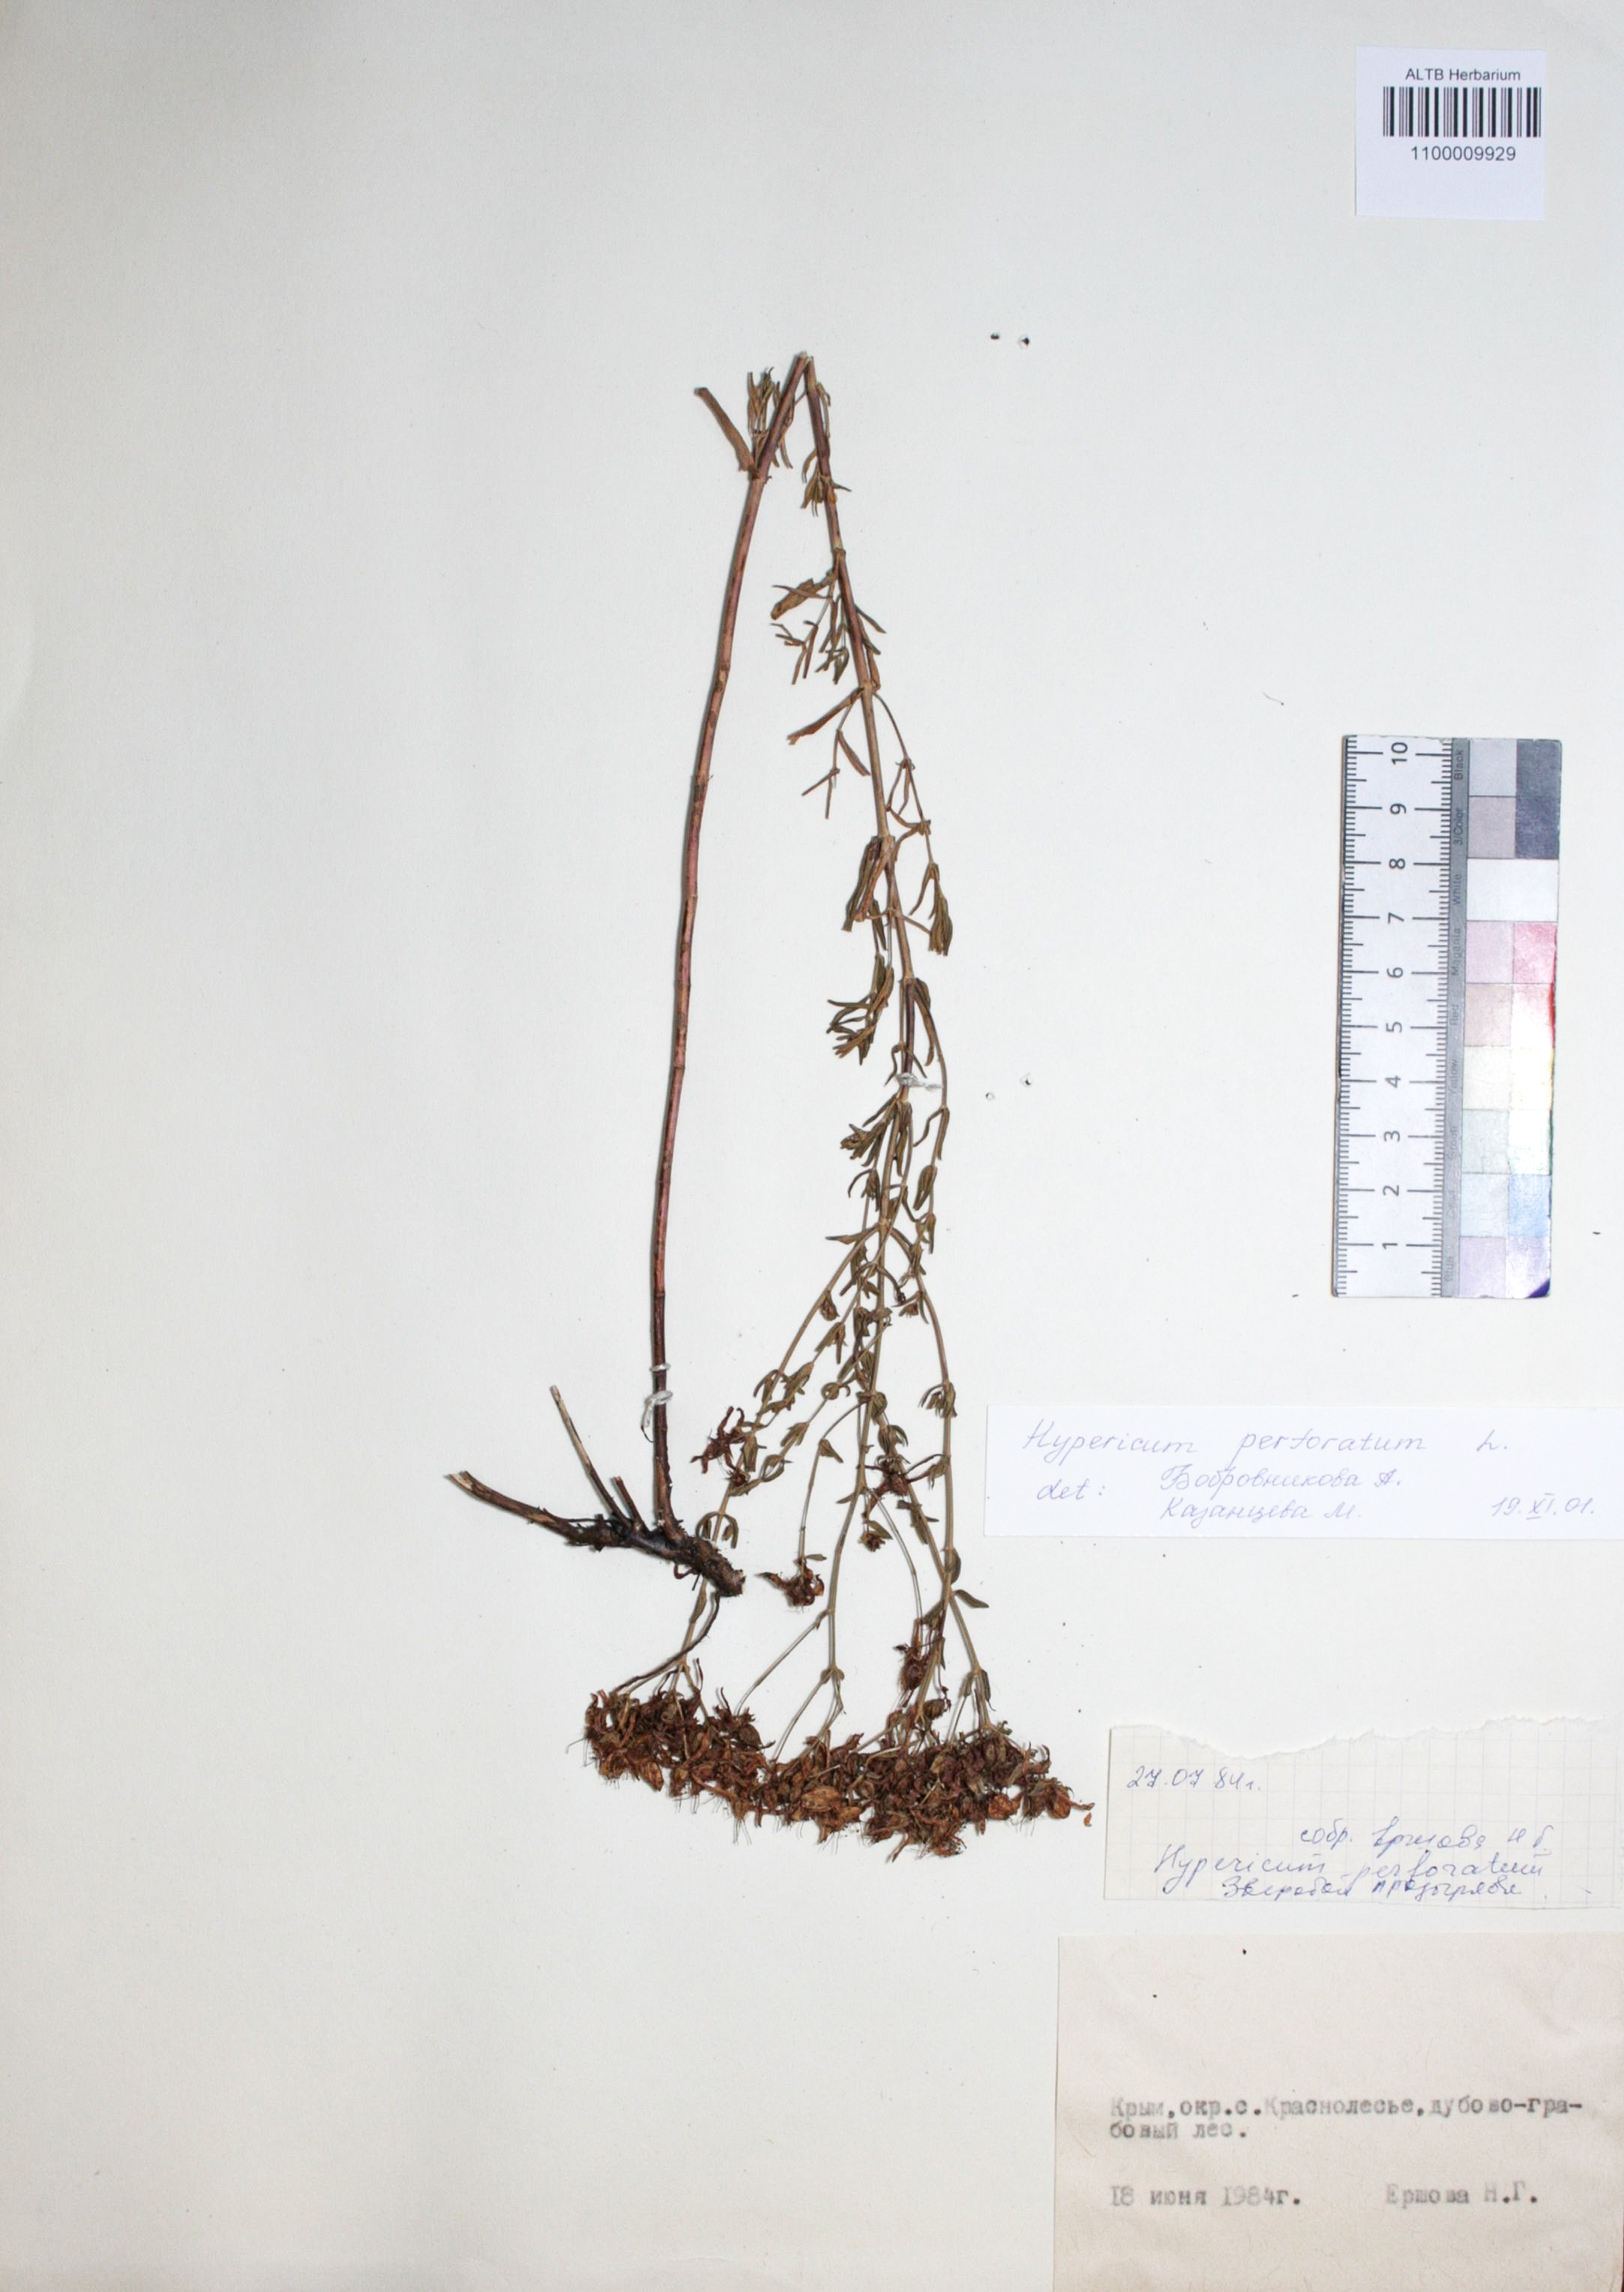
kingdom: Plantae
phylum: Tracheophyta
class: Magnoliopsida
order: Malpighiales
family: Hypericaceae
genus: Hypericum
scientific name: Hypericum perforatum
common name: Common st. johnswort
